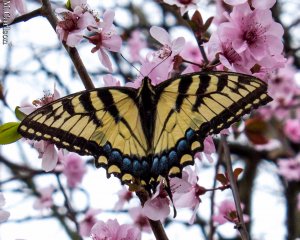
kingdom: Animalia
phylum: Arthropoda
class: Insecta
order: Lepidoptera
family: Papilionidae
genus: Pterourus
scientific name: Pterourus glaucus
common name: Eastern Tiger Swallowtail
